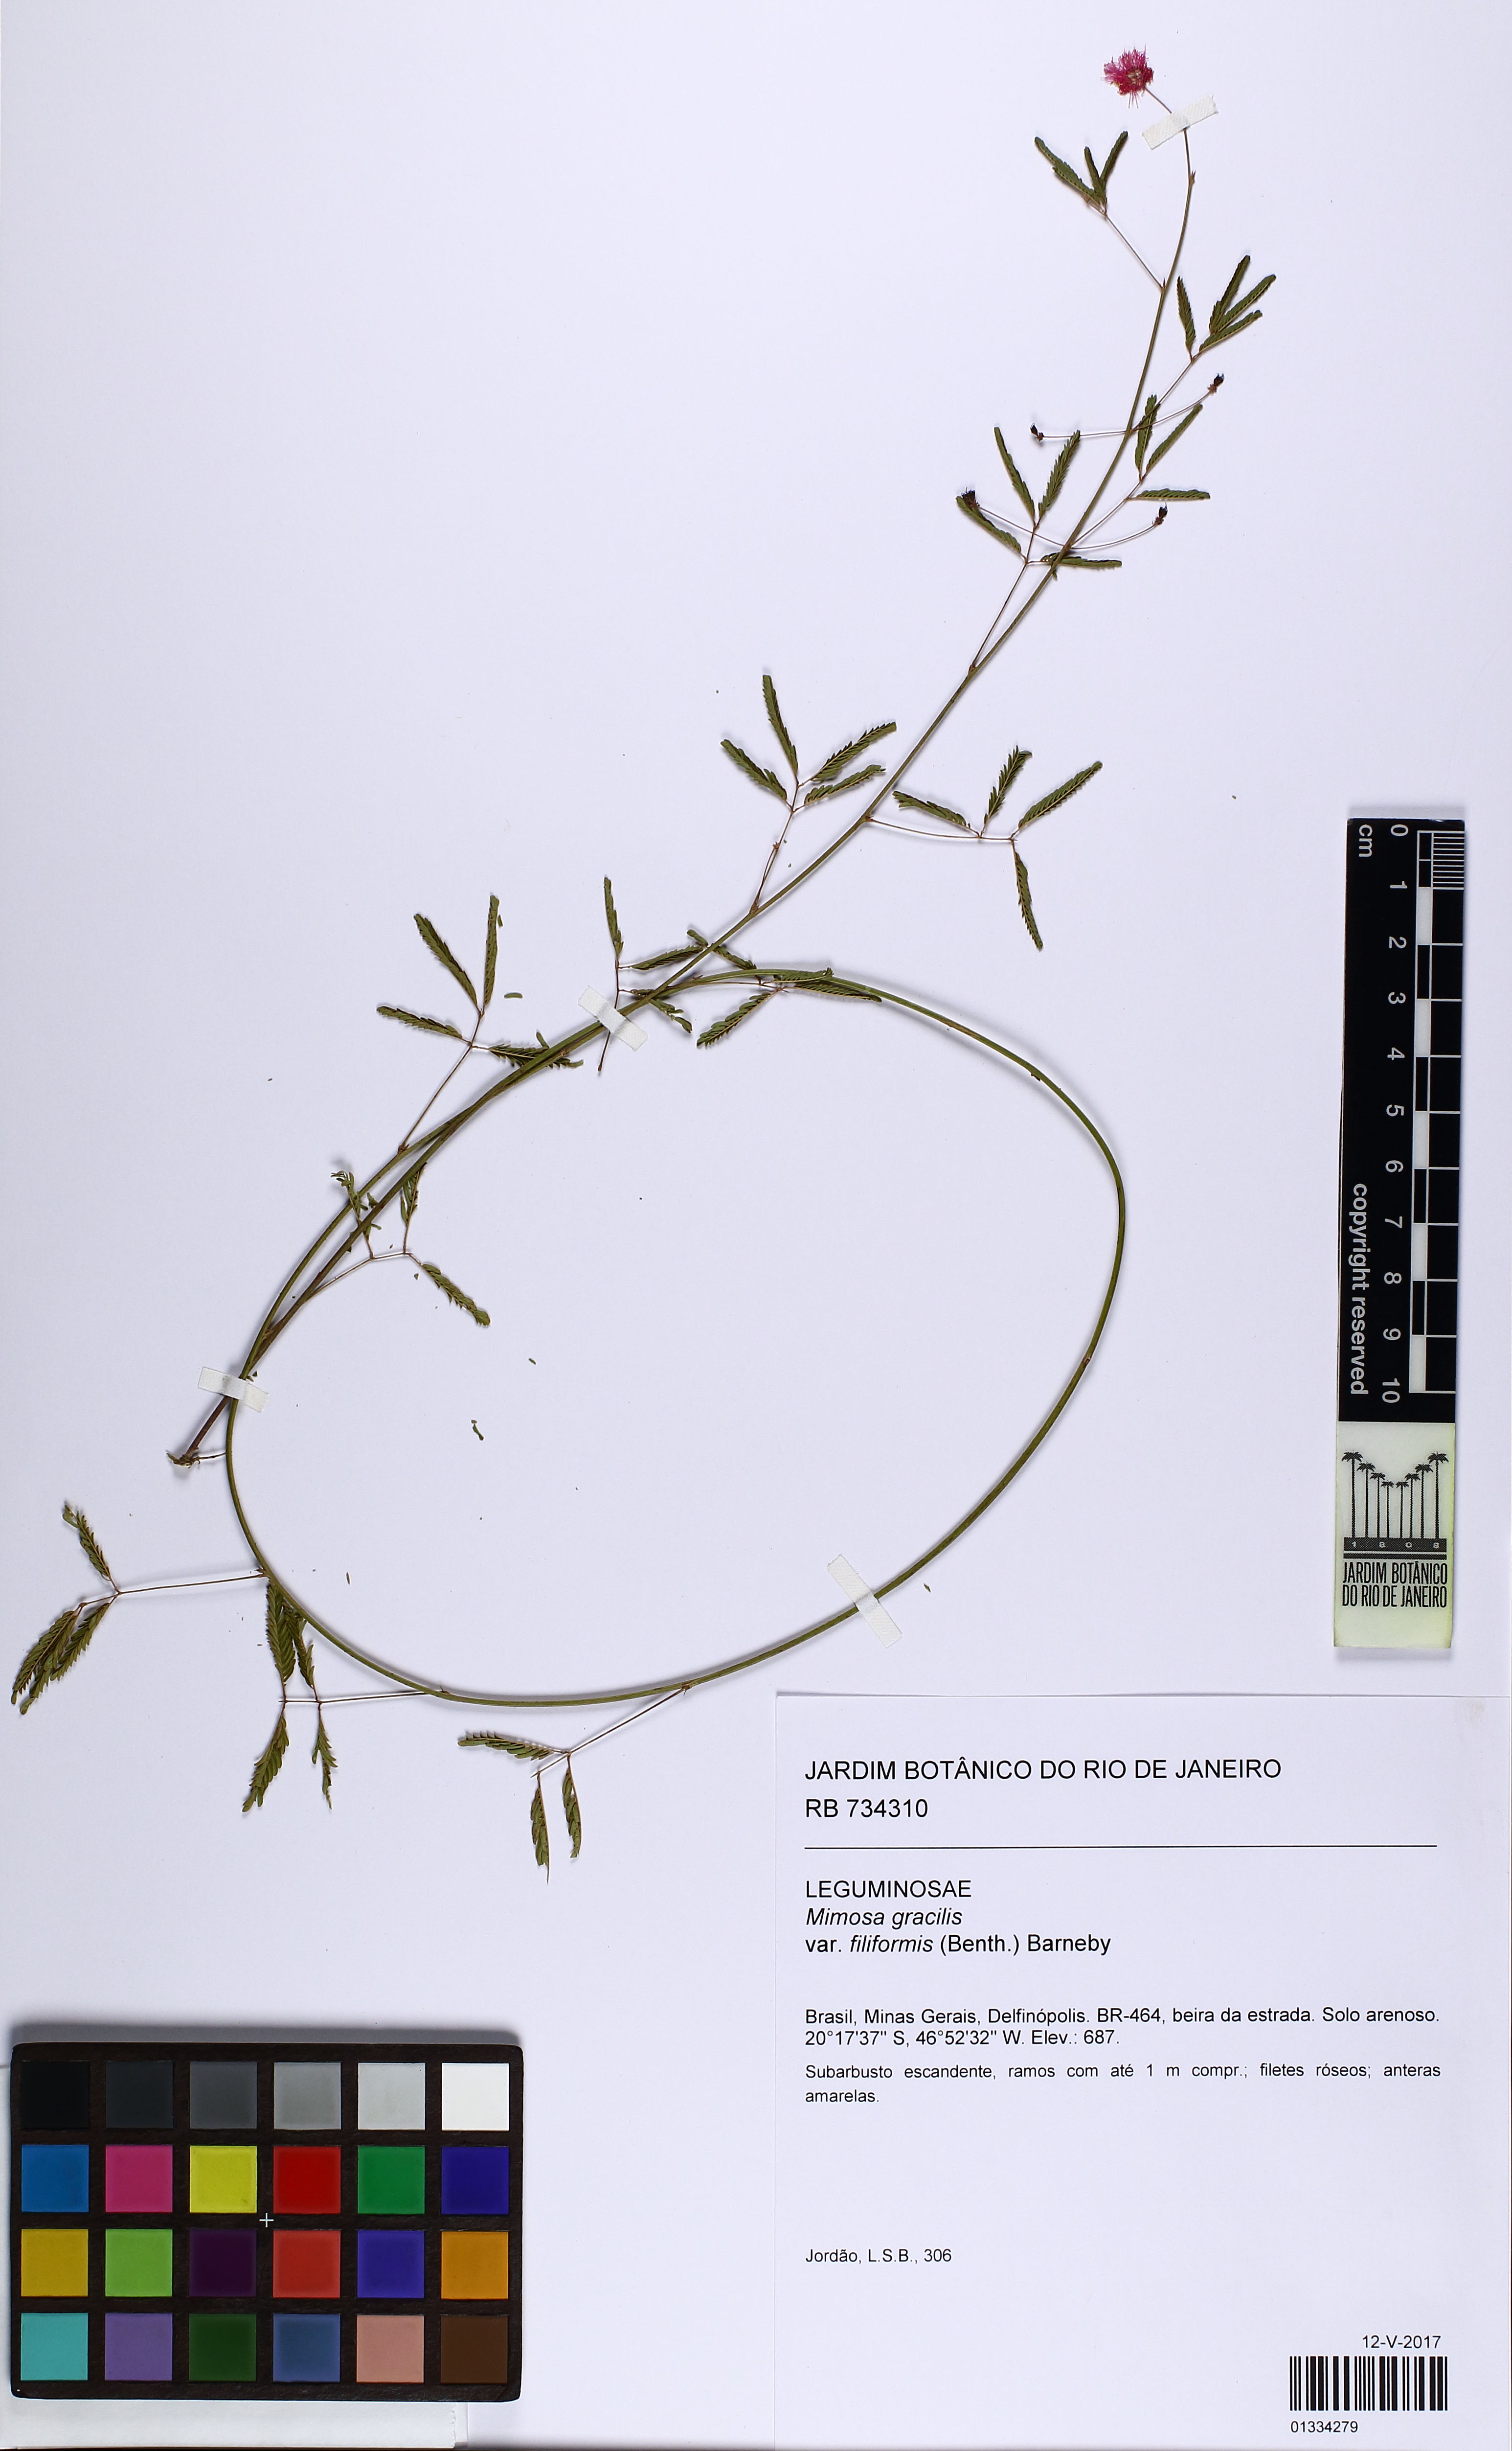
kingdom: Plantae
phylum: Tracheophyta
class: Magnoliopsida
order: Fabales
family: Fabaceae
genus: Mimosa
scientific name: Mimosa gracilis
